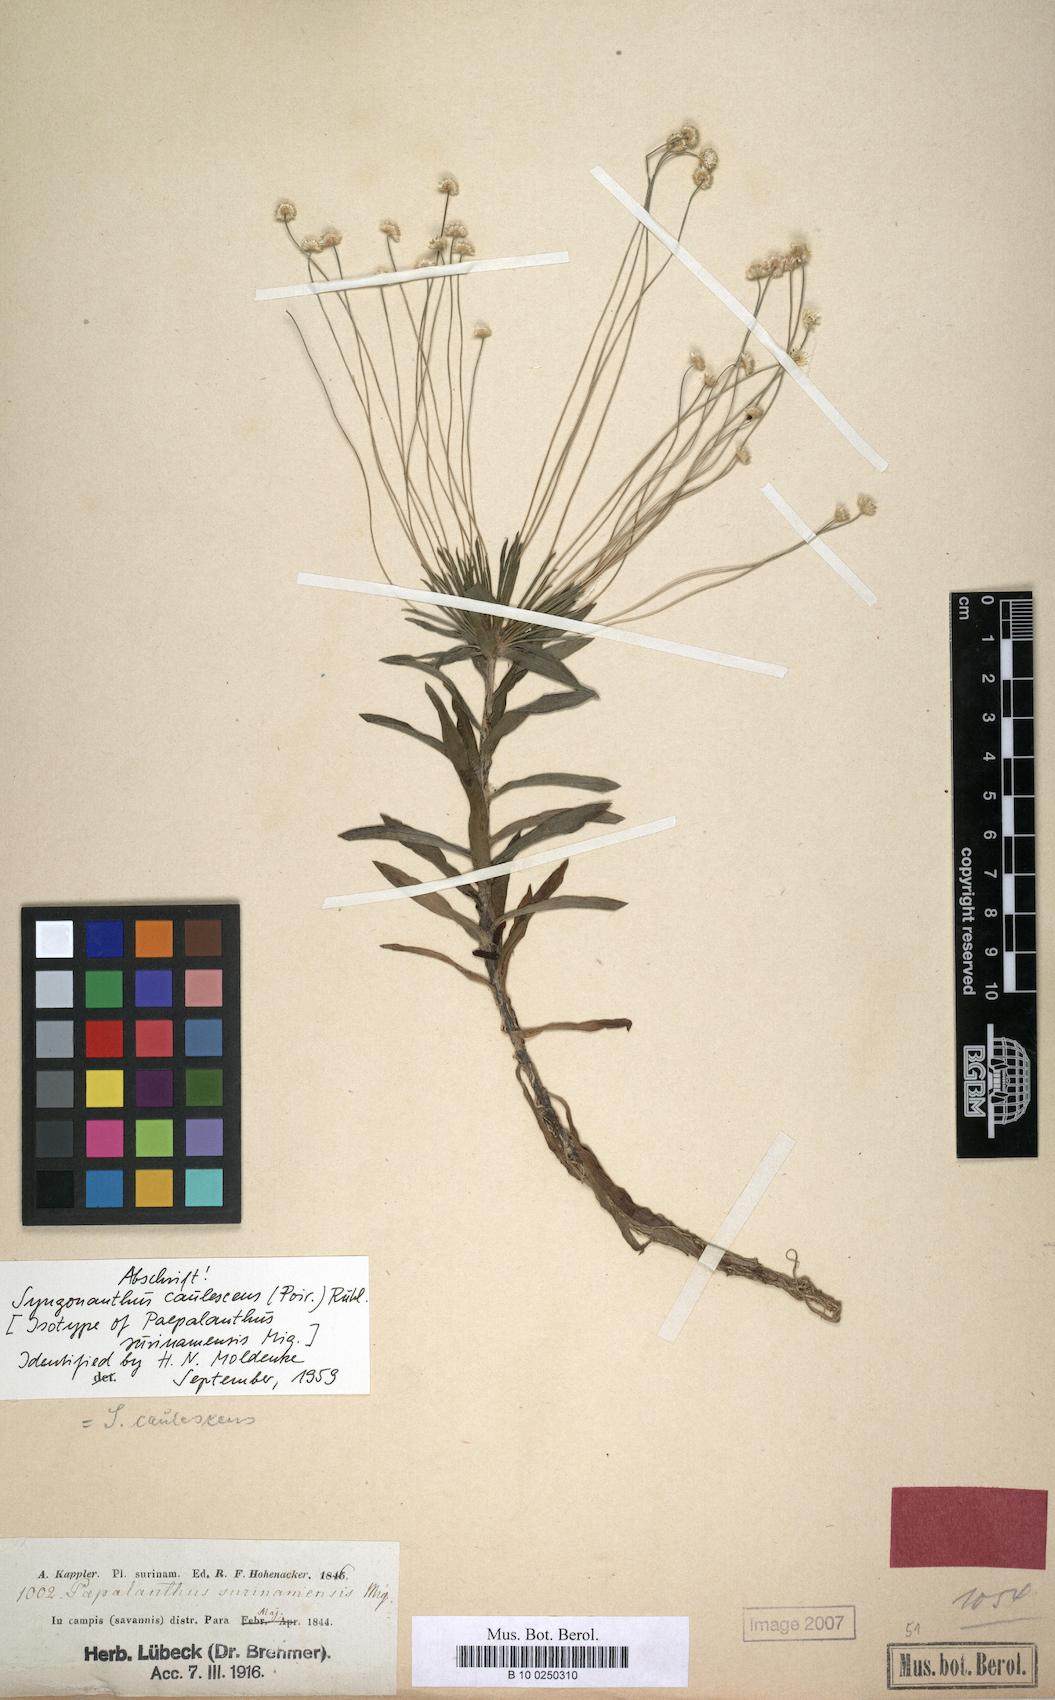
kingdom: Plantae
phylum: Tracheophyta
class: Liliopsida
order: Poales
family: Eriocaulaceae
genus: Syngonanthus
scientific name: Syngonanthus caulescens
